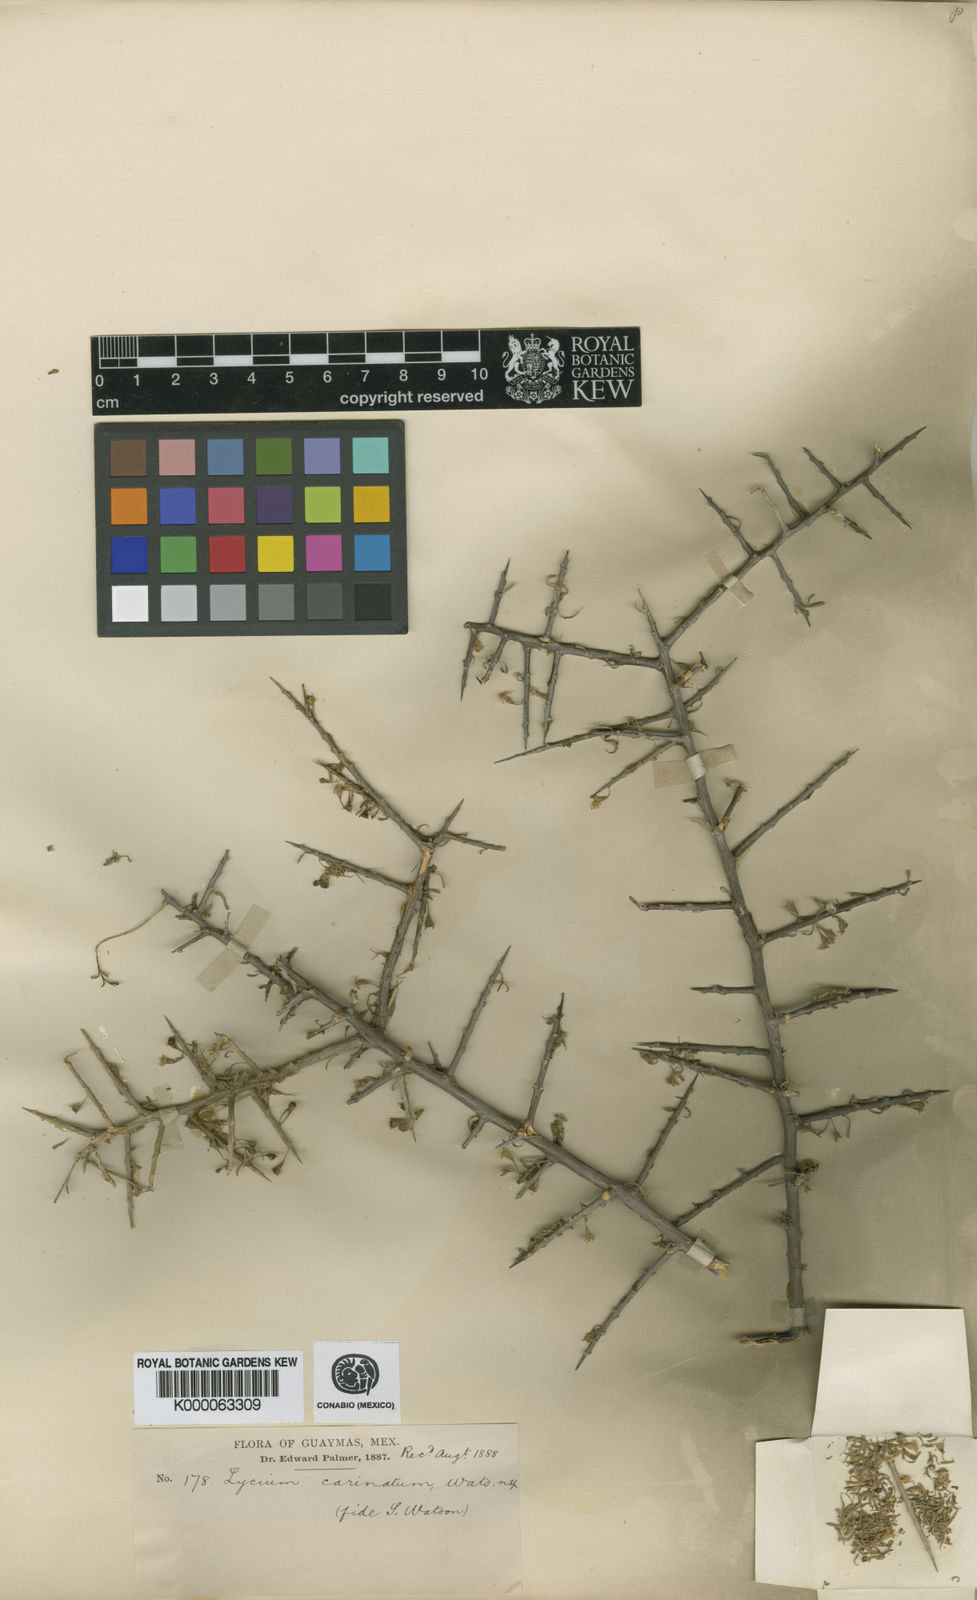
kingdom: Plantae
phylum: Tracheophyta
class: Magnoliopsida
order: Solanales
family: Solanaceae
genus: Lycium
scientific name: Lycium californicum
